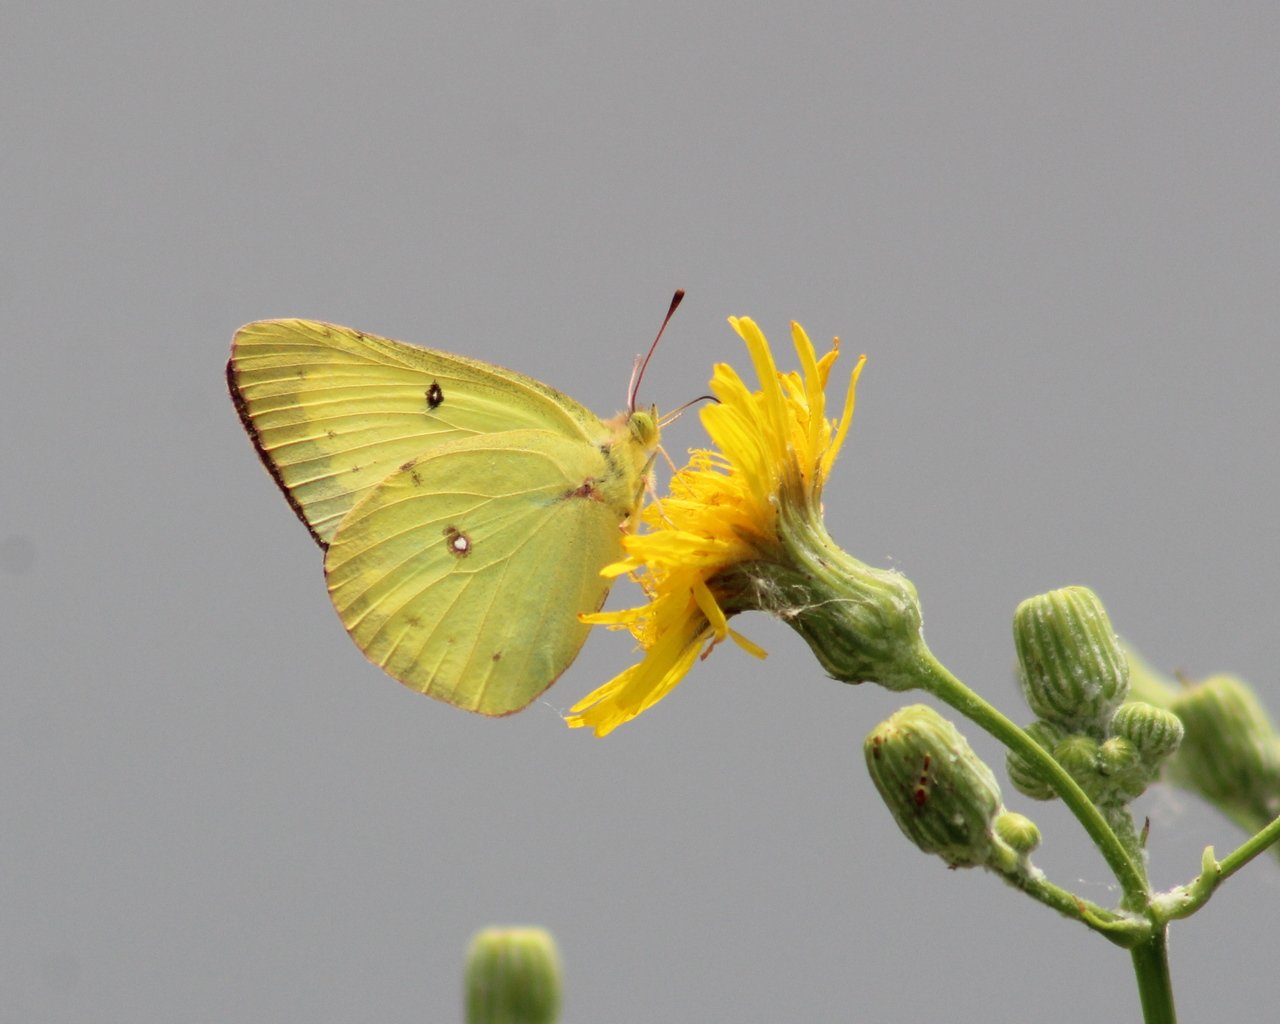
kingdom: Animalia
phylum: Arthropoda
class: Insecta
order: Lepidoptera
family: Pieridae
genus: Colias
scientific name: Colias philodice
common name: Clouded Sulphur
